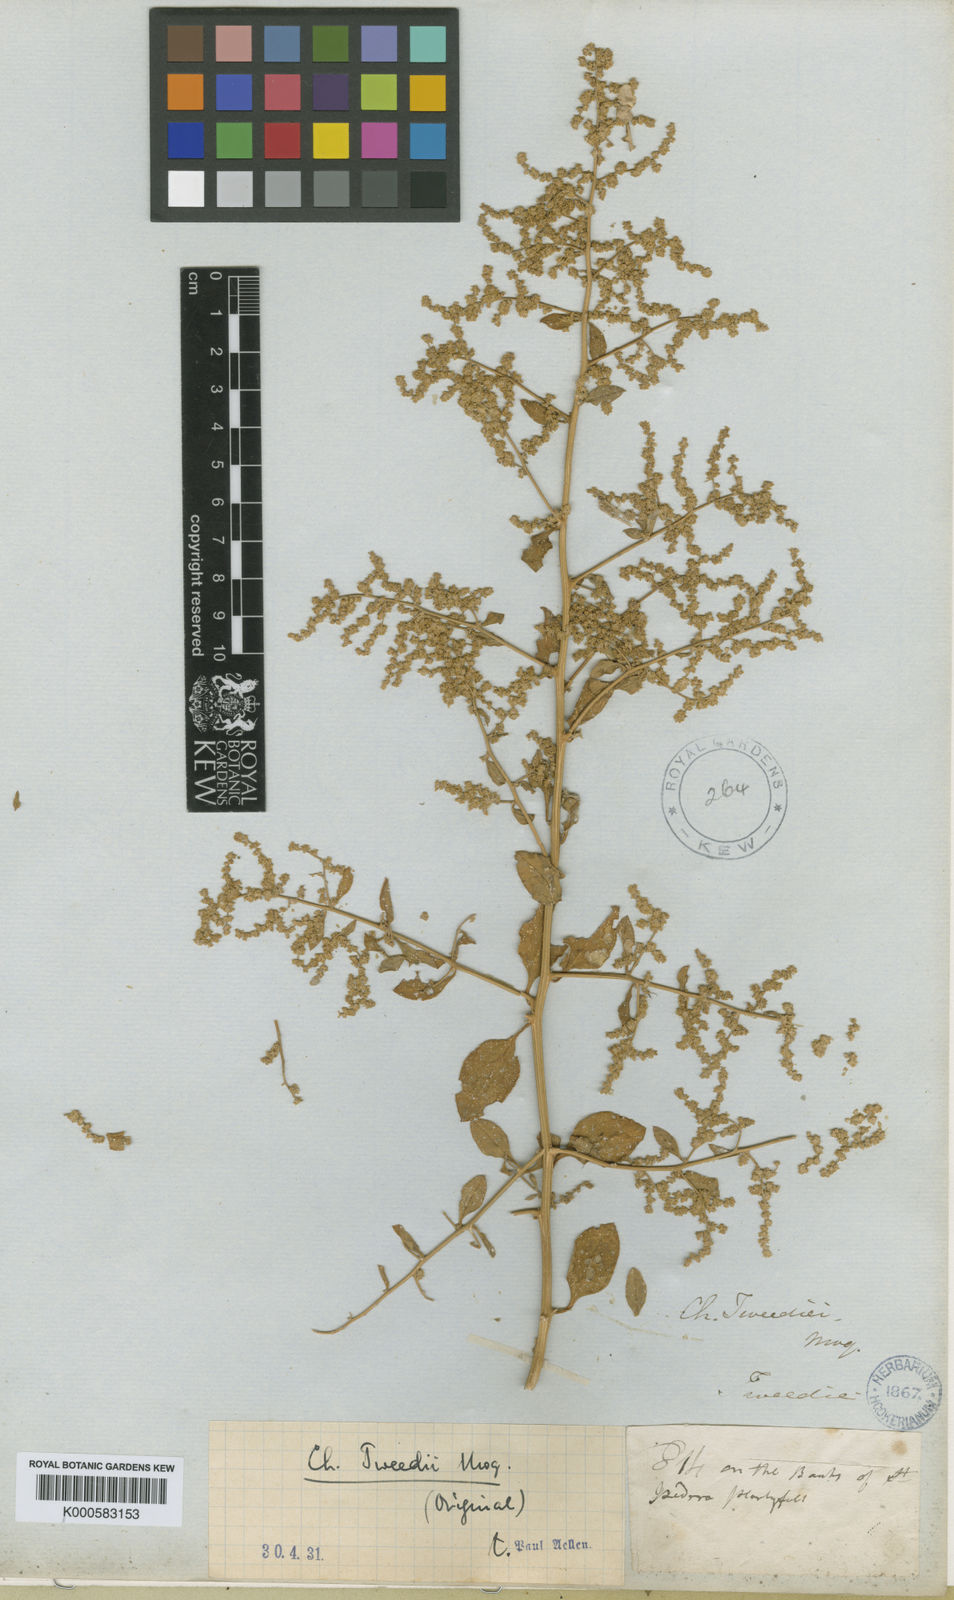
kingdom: Plantae
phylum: Tracheophyta
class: Magnoliopsida
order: Caryophyllales
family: Amaranthaceae
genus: Holmbergia
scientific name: Holmbergia tweedii
